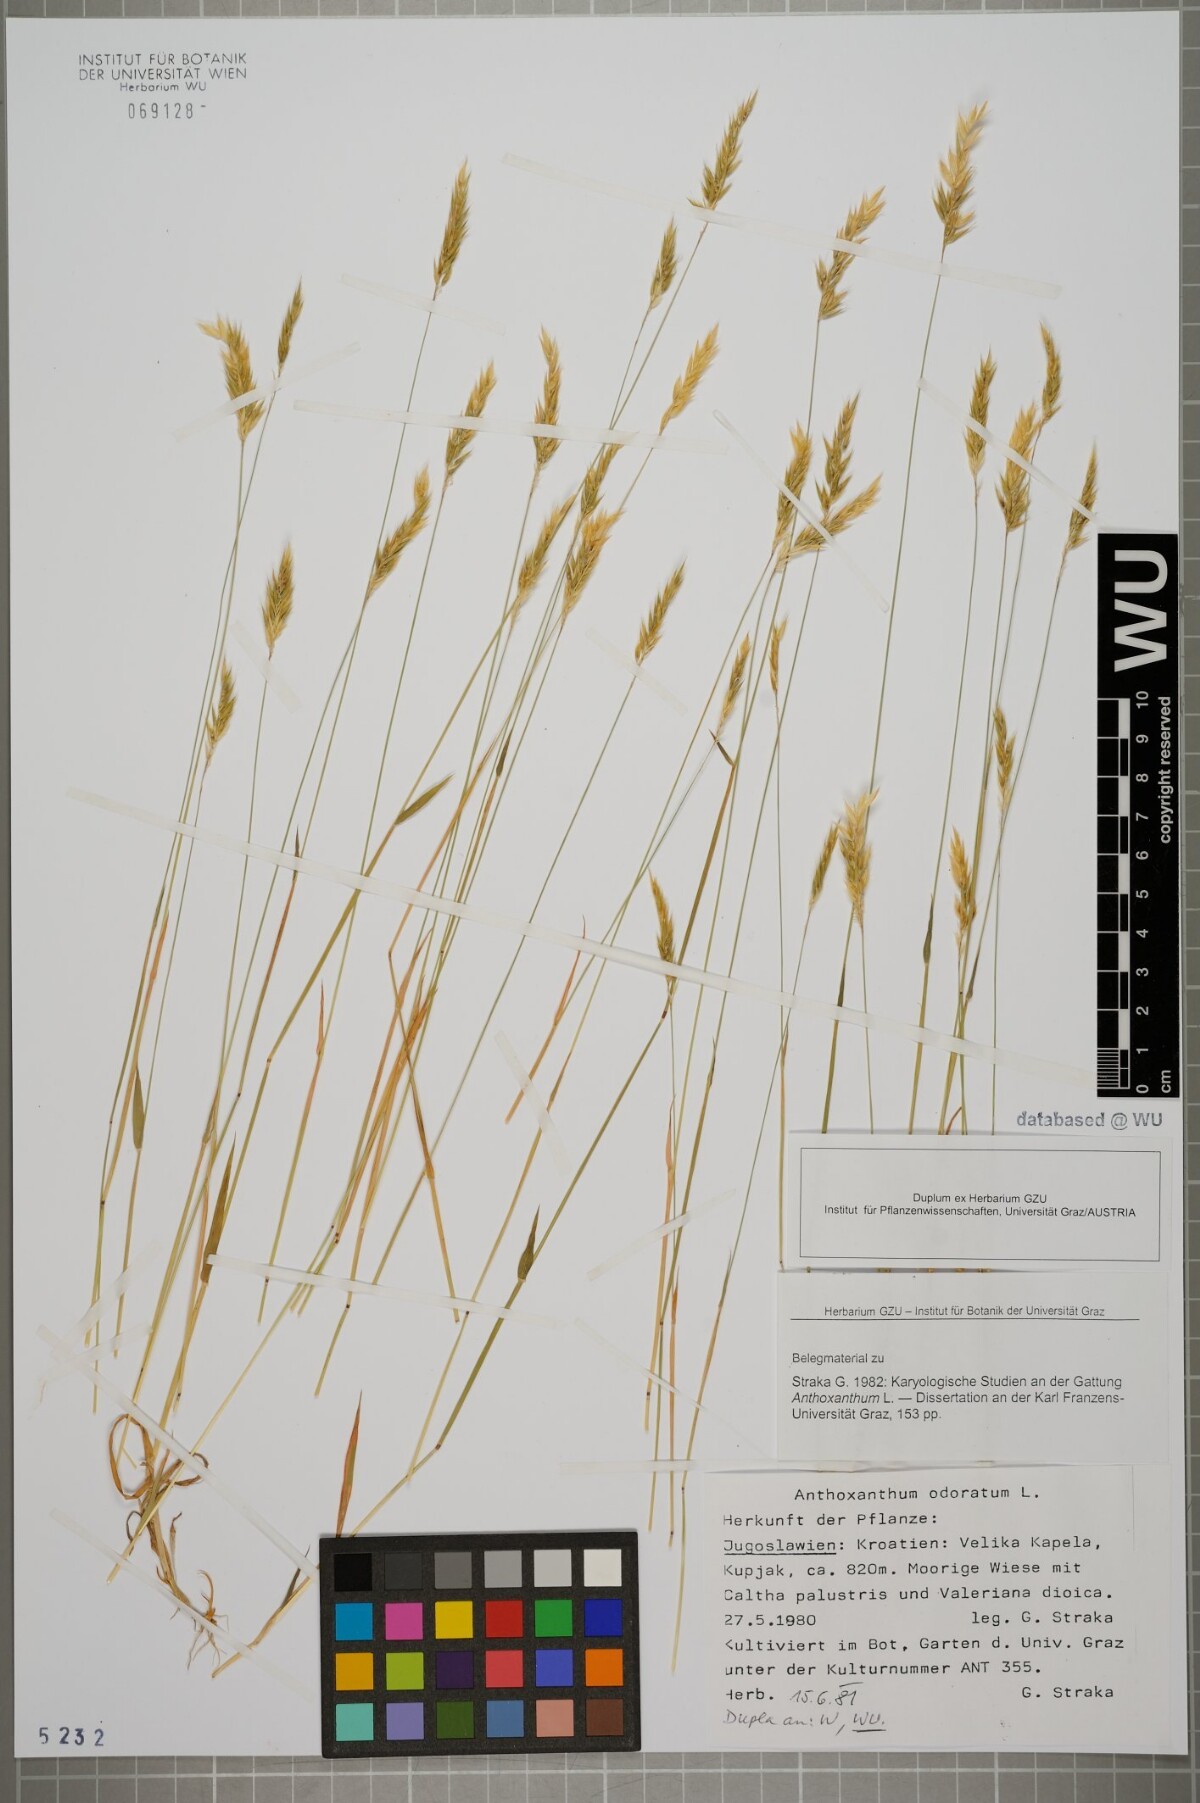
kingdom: Plantae
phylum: Tracheophyta
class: Liliopsida
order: Poales
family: Poaceae
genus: Anthoxanthum
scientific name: Anthoxanthum odoratum
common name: Sweet vernalgrass
